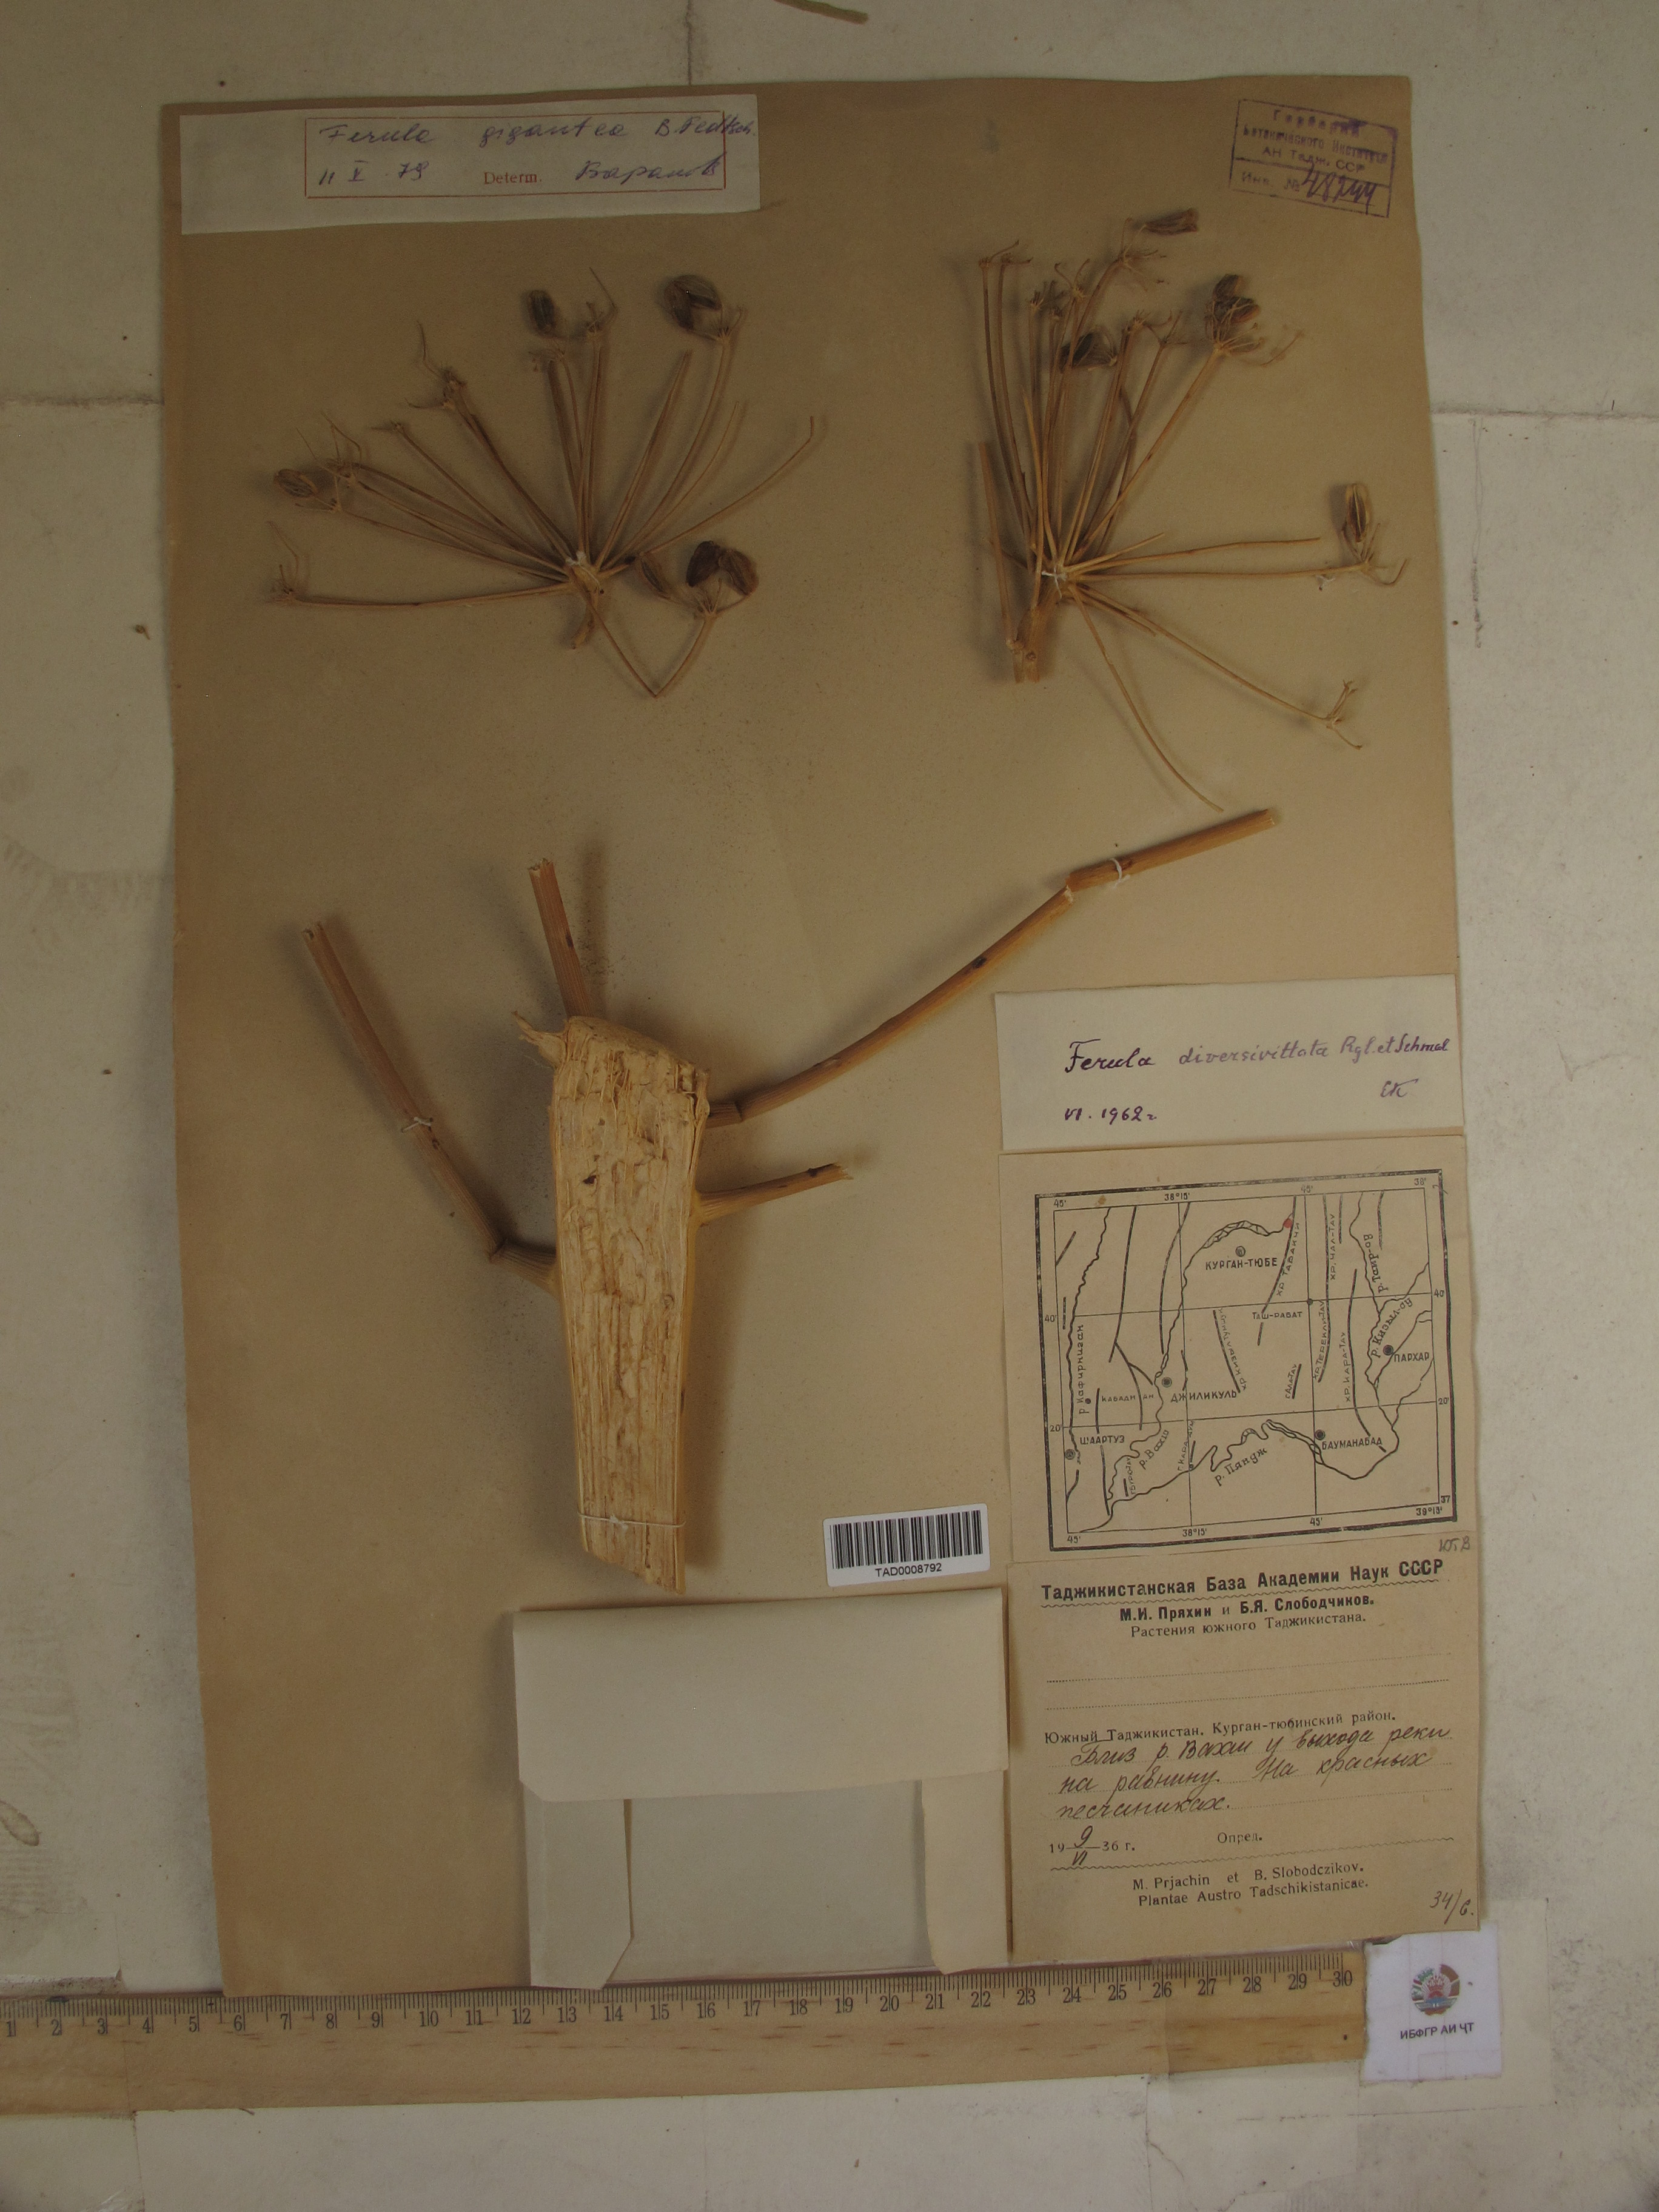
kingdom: Plantae
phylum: Tracheophyta
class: Magnoliopsida
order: Apiales
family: Apiaceae
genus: Ferula
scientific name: Ferula gigantea
